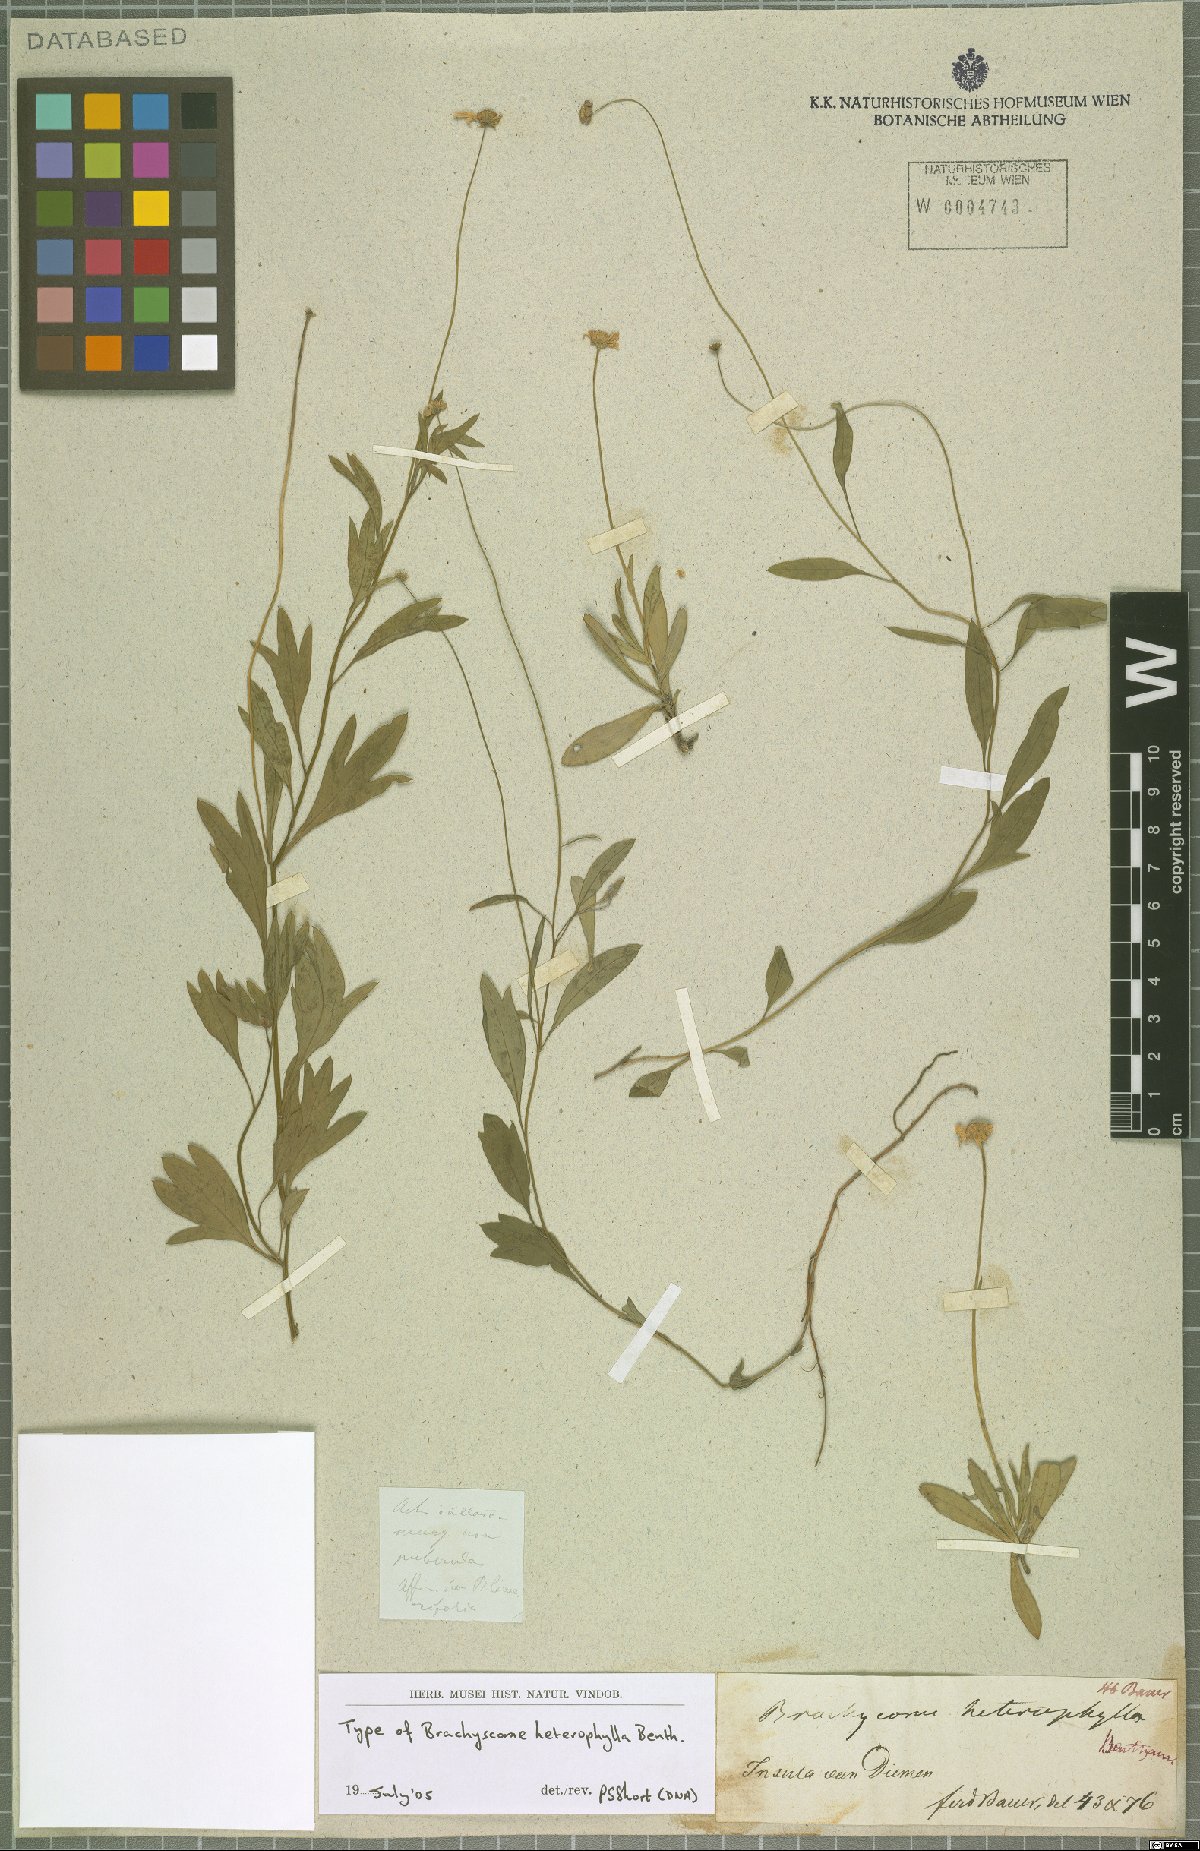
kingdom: Plantae
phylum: Tracheophyta
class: Magnoliopsida
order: Asterales
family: Asteraceae
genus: Allittia
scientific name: Allittia cardiocarpa
